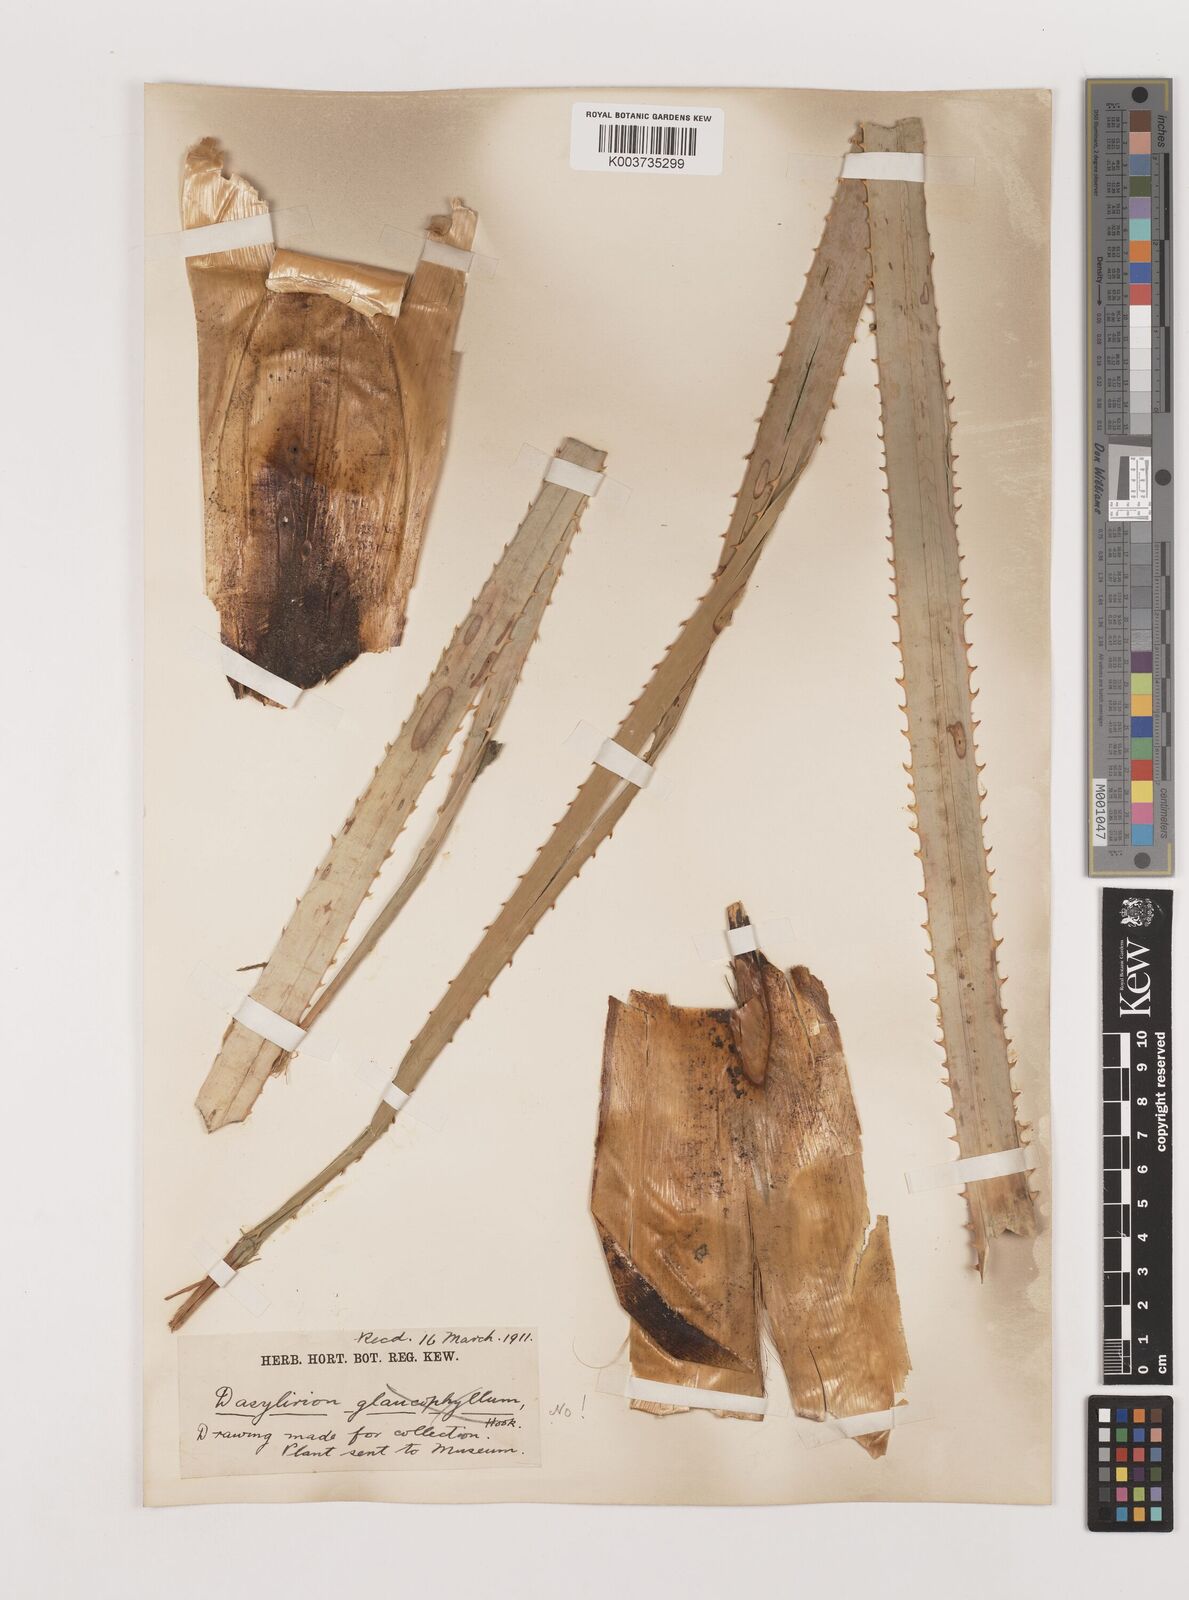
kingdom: Plantae
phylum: Tracheophyta
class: Liliopsida
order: Asparagales
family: Asparagaceae
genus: Dasylirion
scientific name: Dasylirion glaucophyllum
